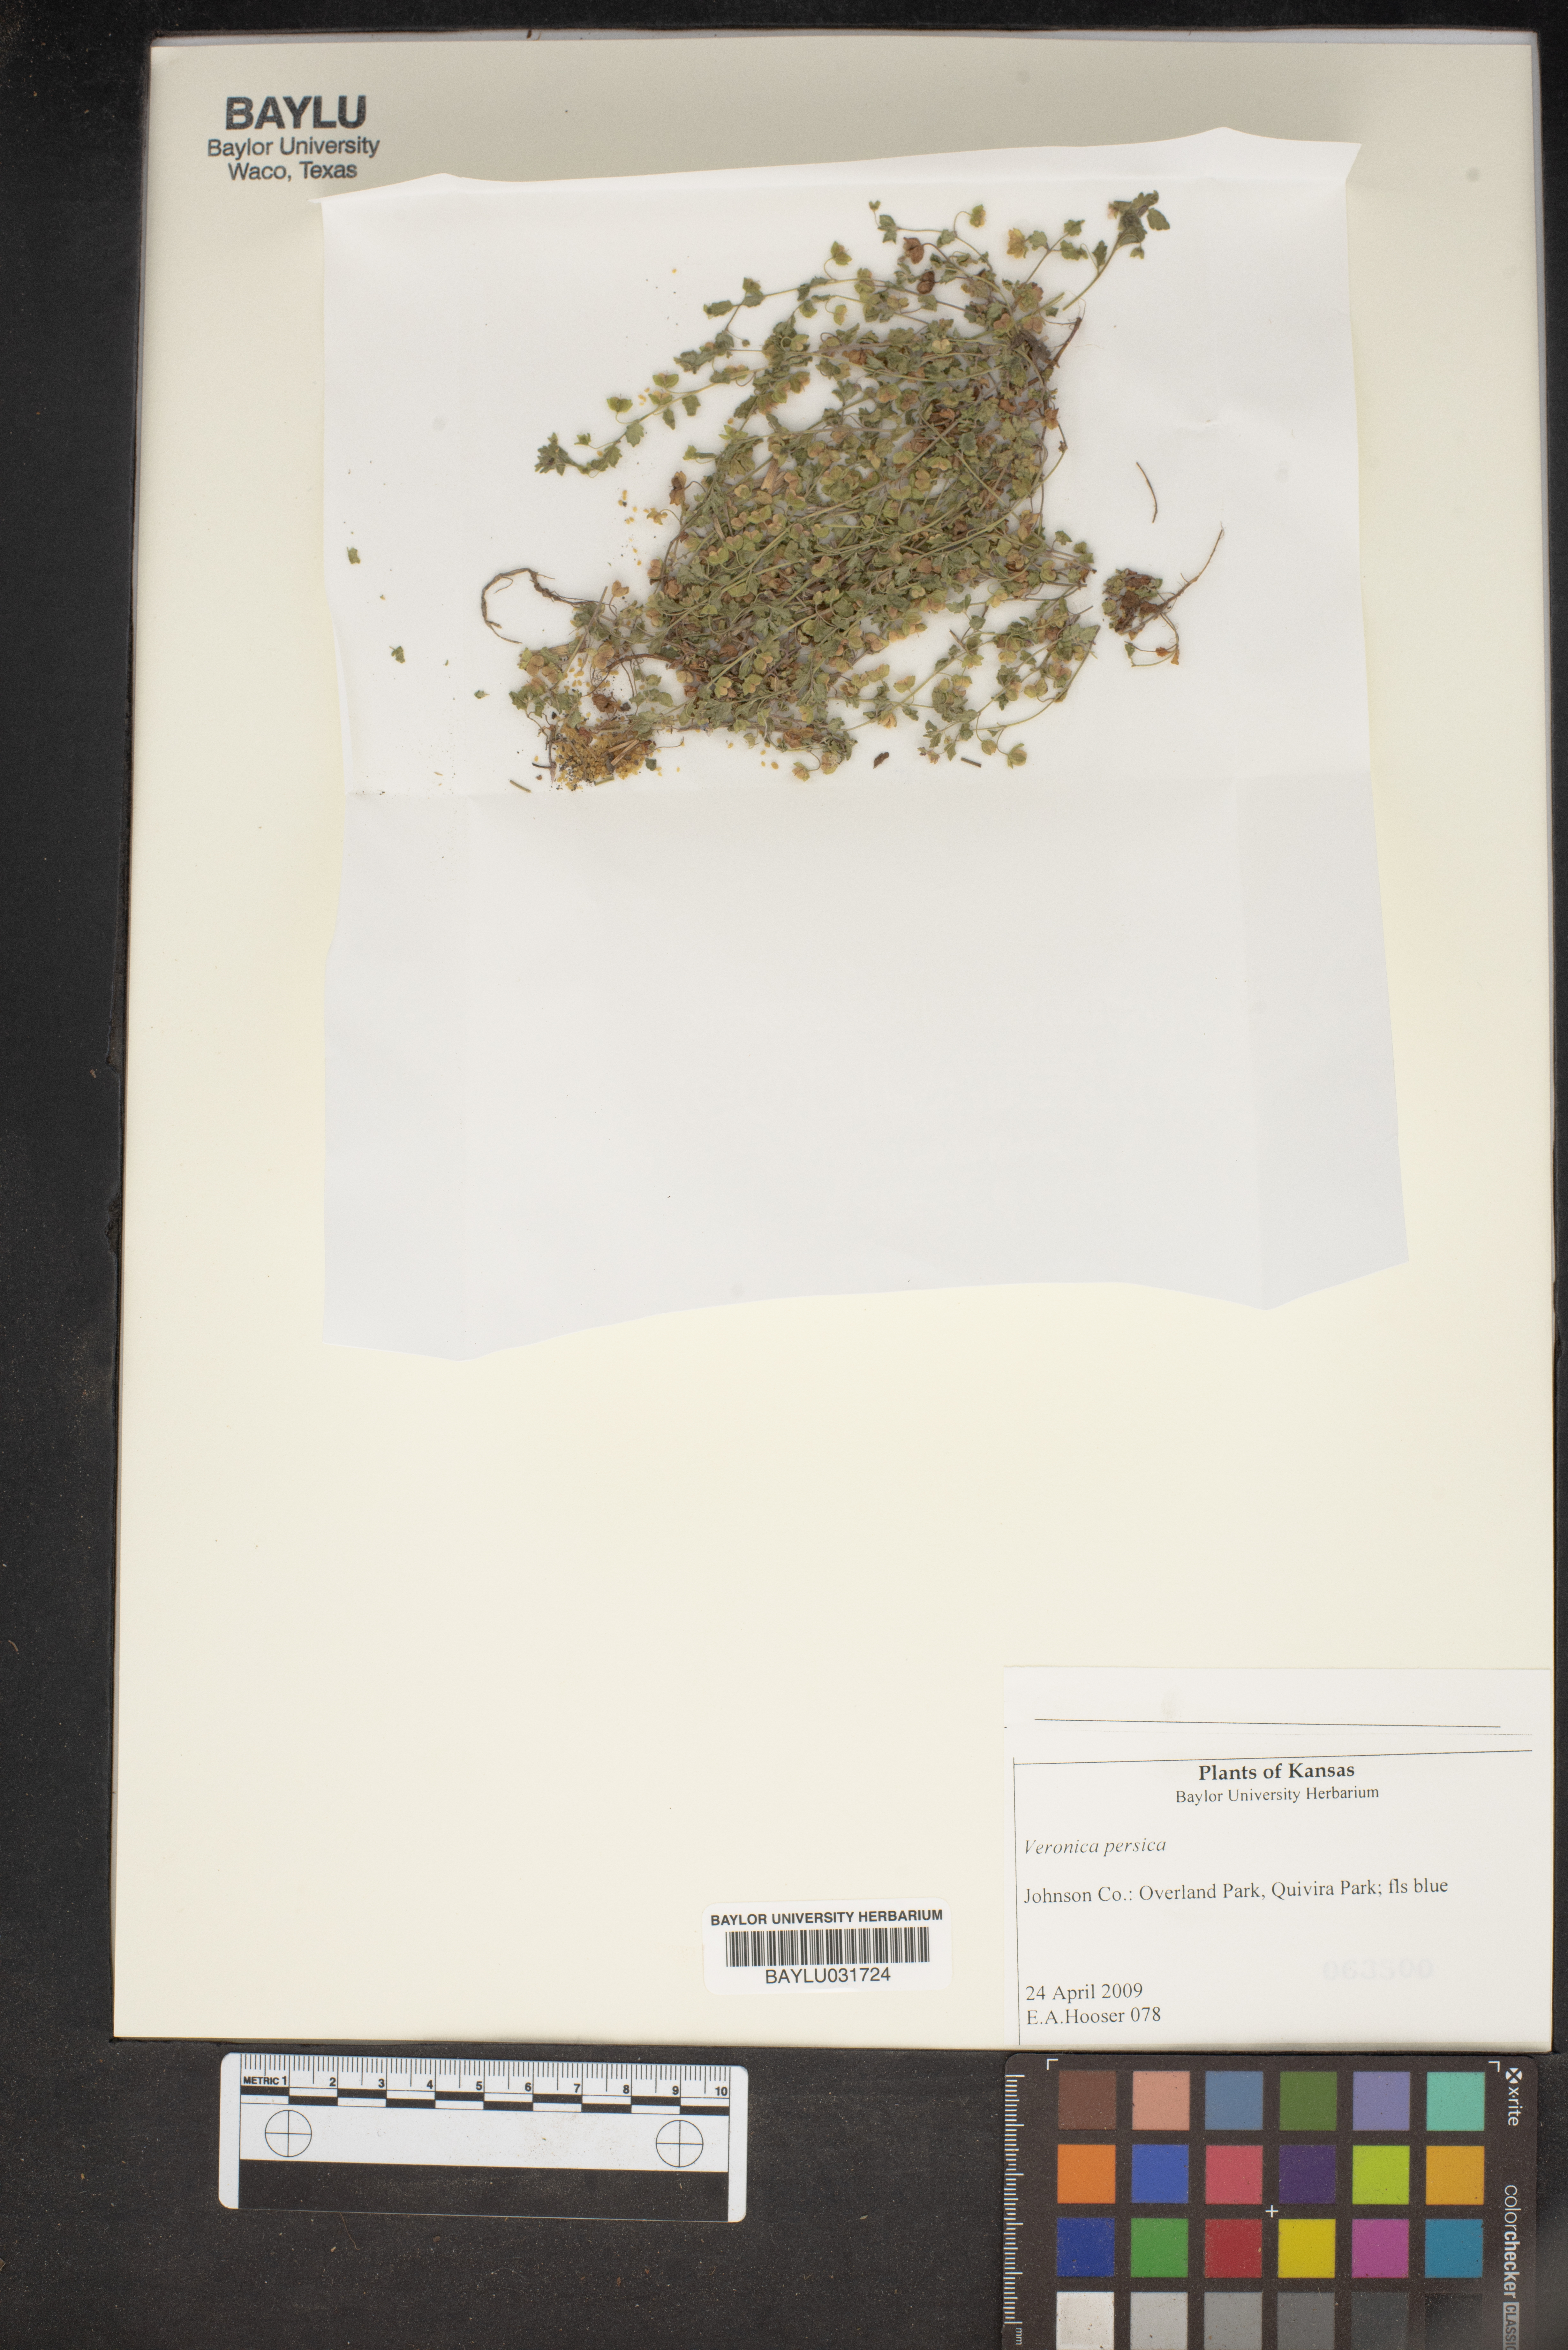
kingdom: Plantae
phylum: Tracheophyta
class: Magnoliopsida
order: Lamiales
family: Plantaginaceae
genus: Veronica
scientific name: Veronica persica
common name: Common field-speedwell
